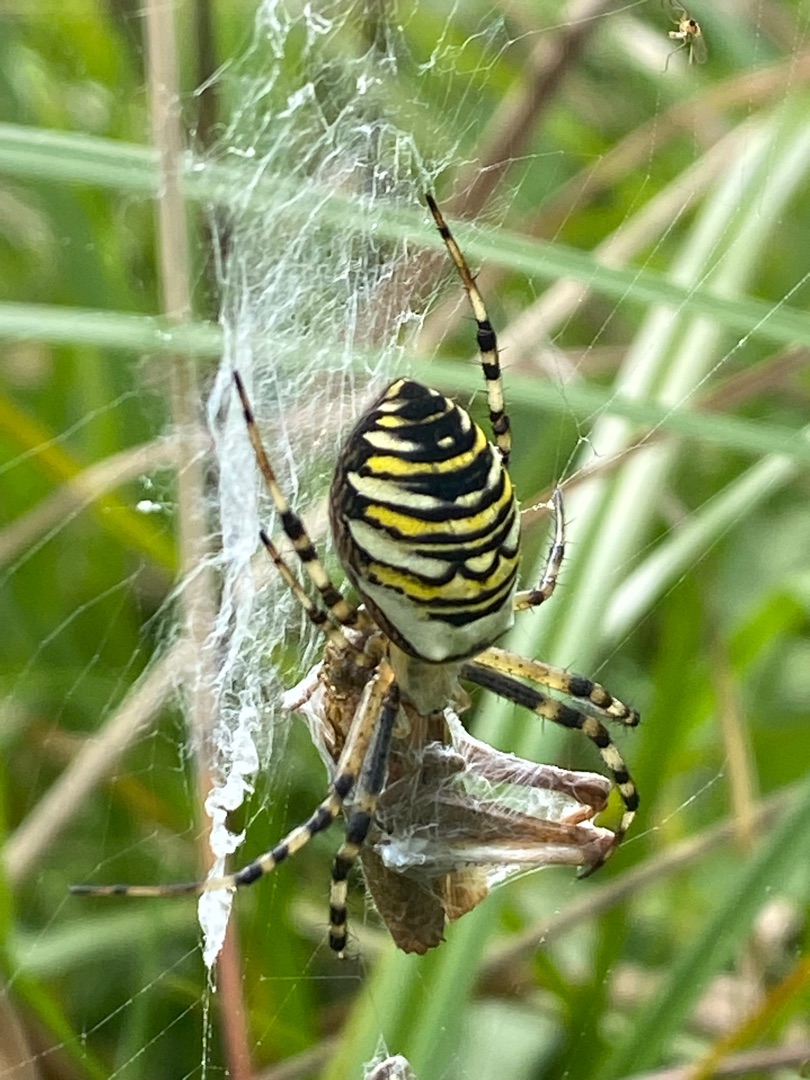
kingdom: Animalia
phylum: Arthropoda
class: Arachnida
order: Araneae
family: Araneidae
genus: Argiope
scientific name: Argiope bruennichi
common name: Hvepseedderkop
